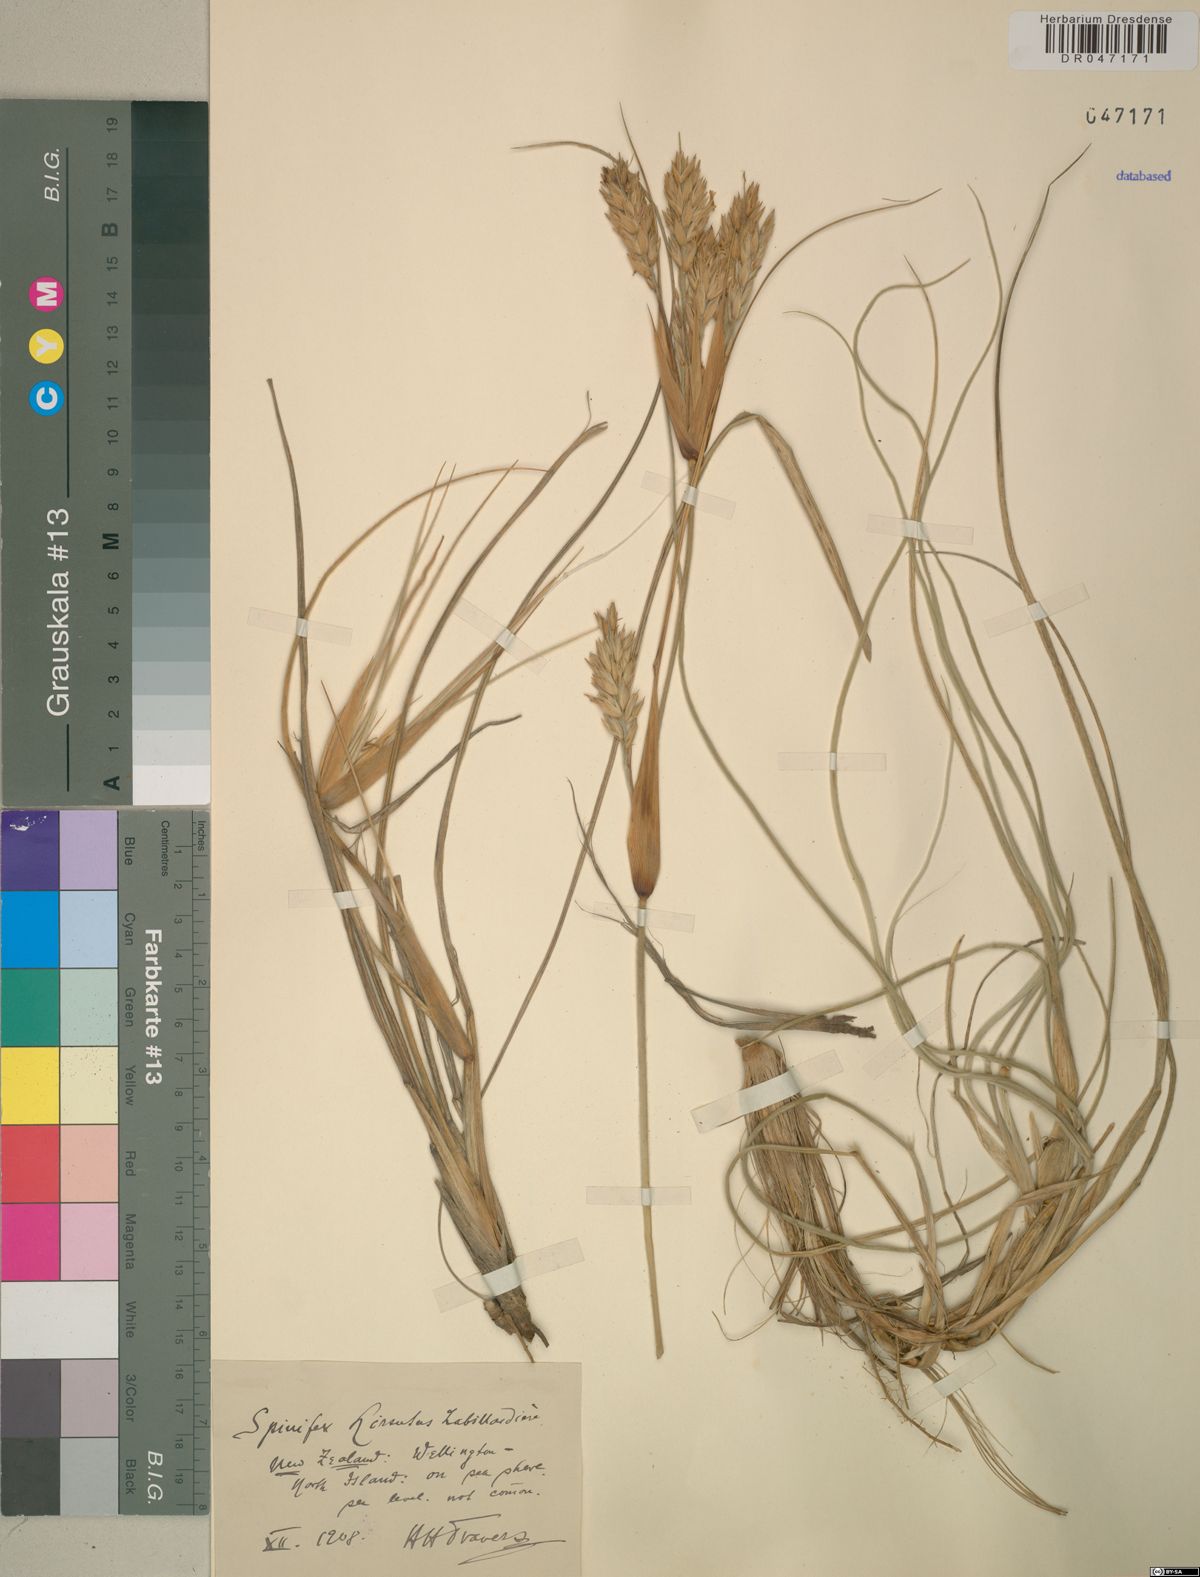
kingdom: Plantae
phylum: Tracheophyta
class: Liliopsida
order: Poales
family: Poaceae
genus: Spinifex
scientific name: Spinifex hirsutus
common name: Hairy spinifex
